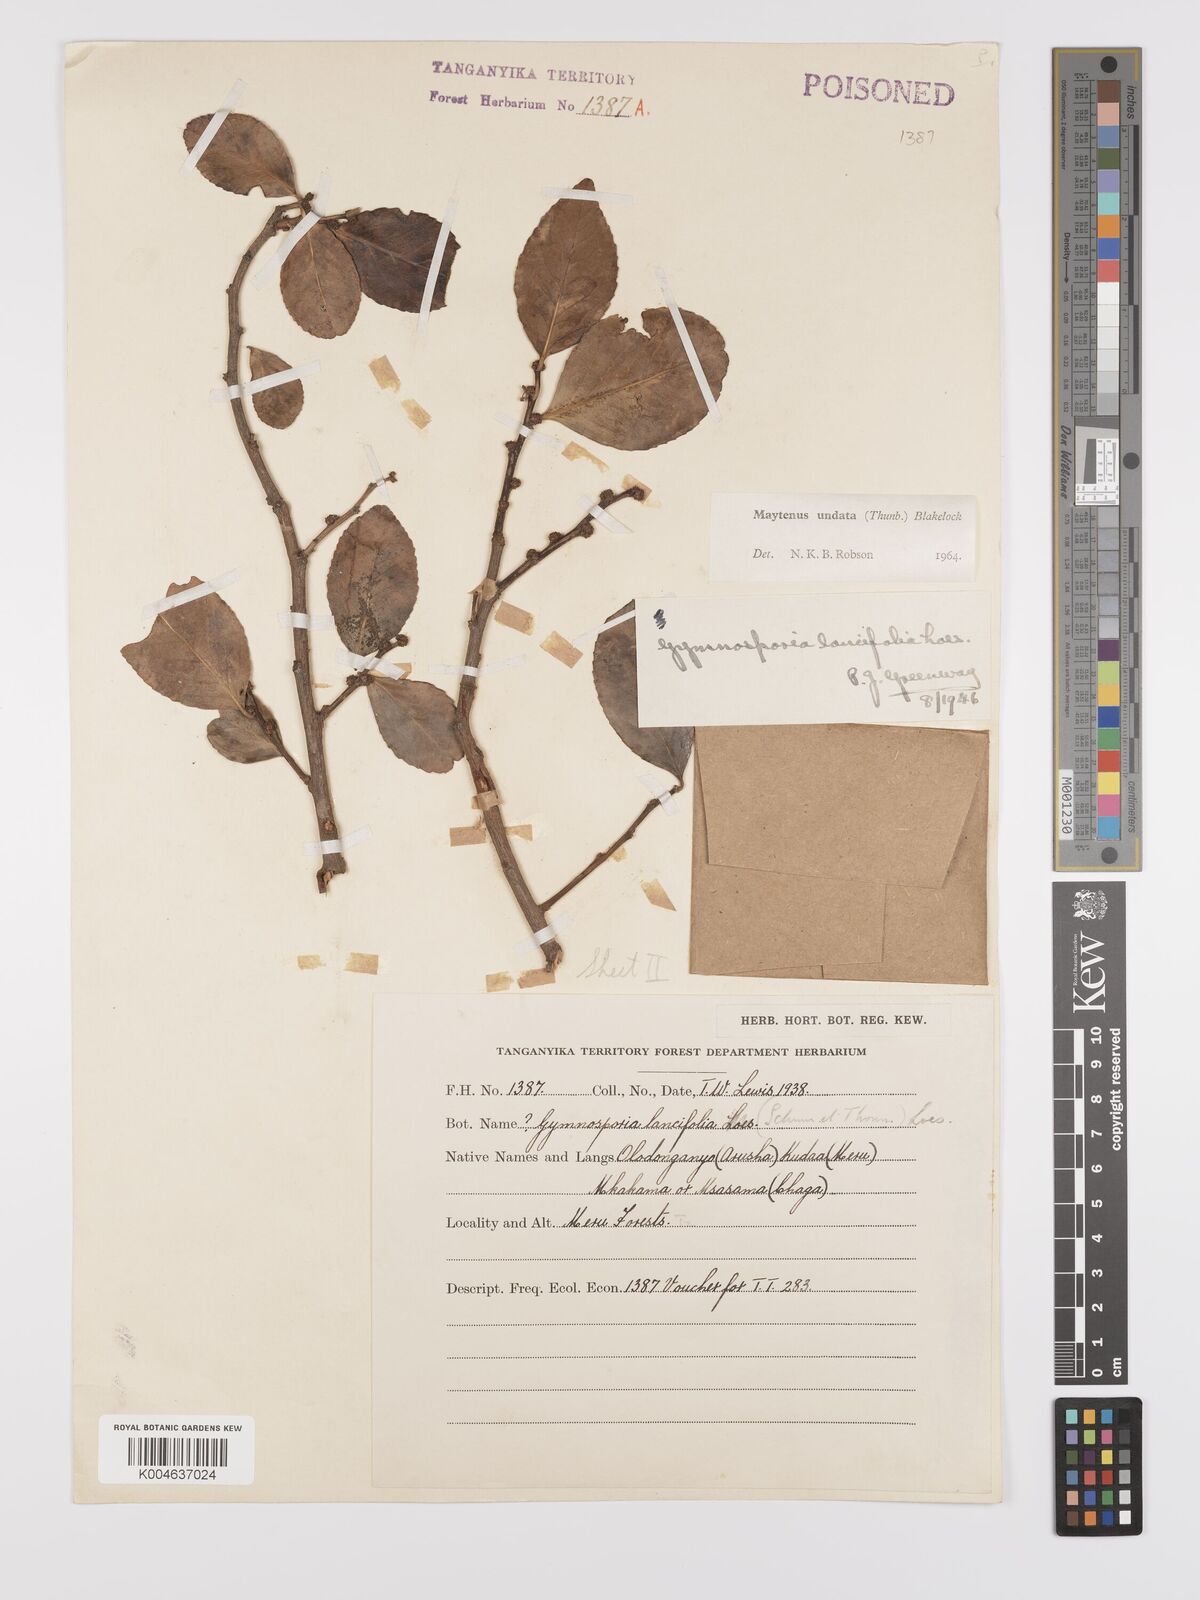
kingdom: Plantae
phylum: Tracheophyta
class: Magnoliopsida
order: Celastrales
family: Celastraceae
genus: Gymnosporia
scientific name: Gymnosporia undata
